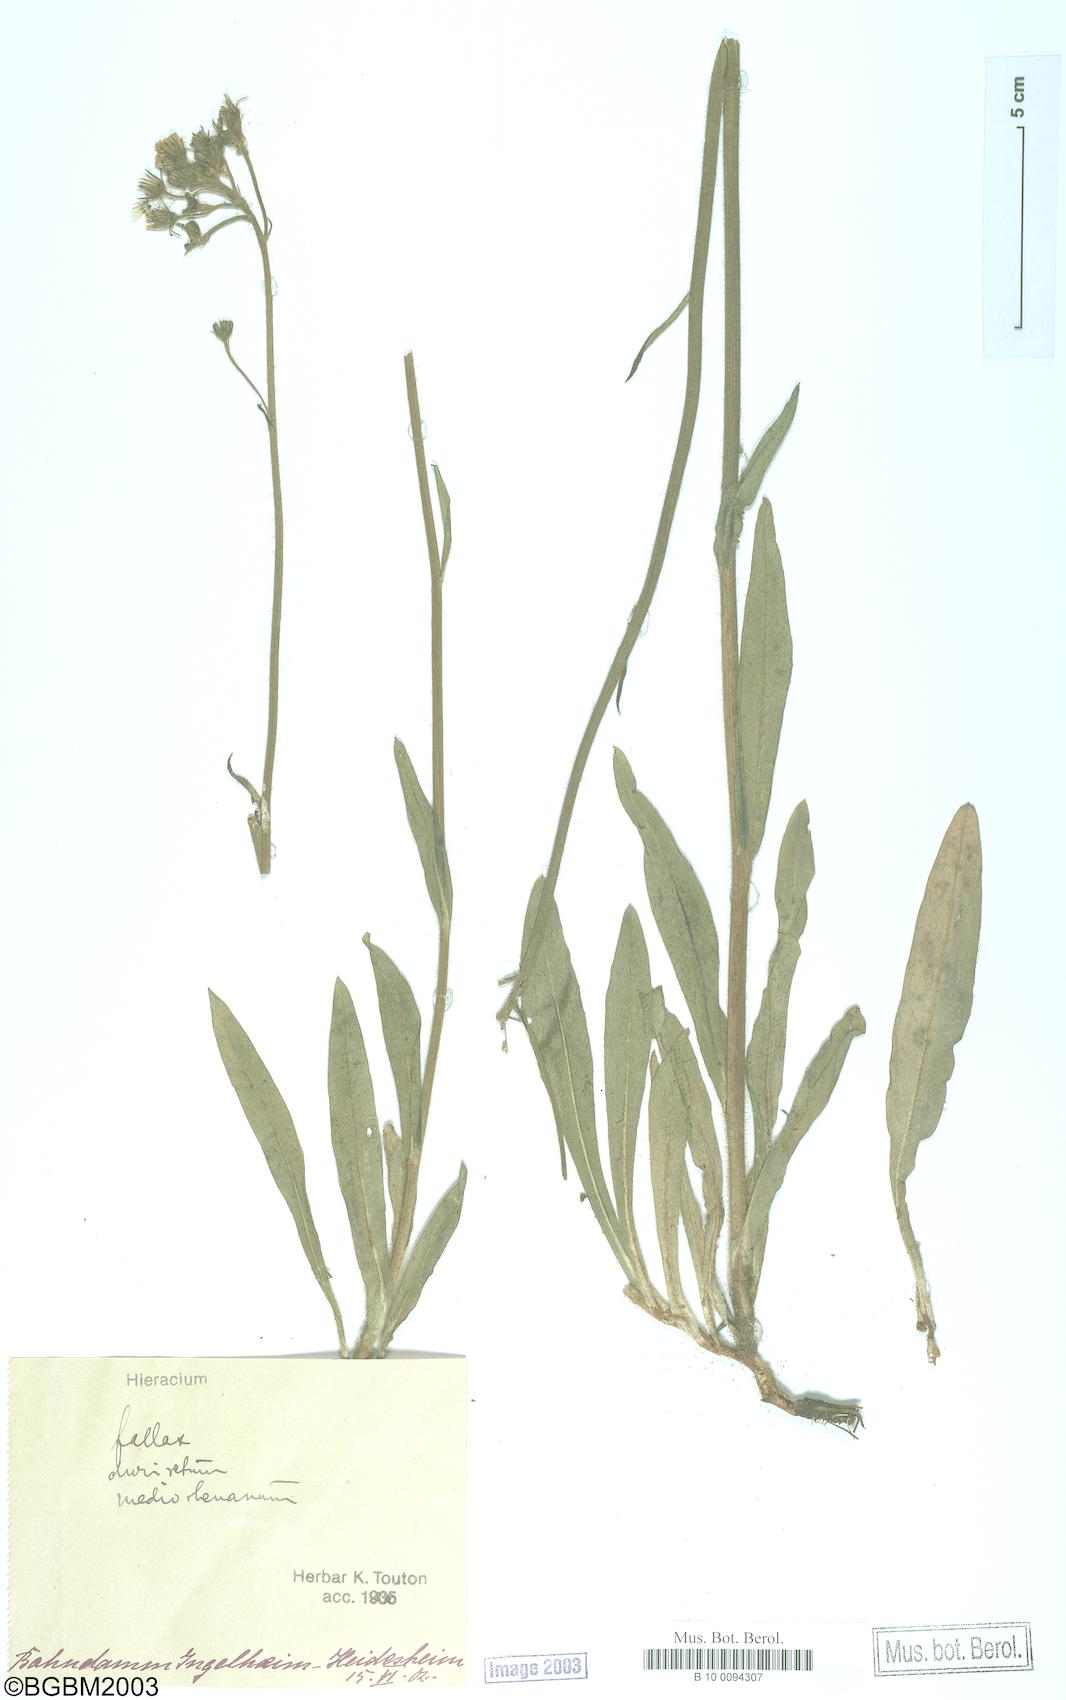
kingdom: Plantae
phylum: Tracheophyta
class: Magnoliopsida
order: Asterales
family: Asteraceae
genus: Hieracium
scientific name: Hieracium fallax
